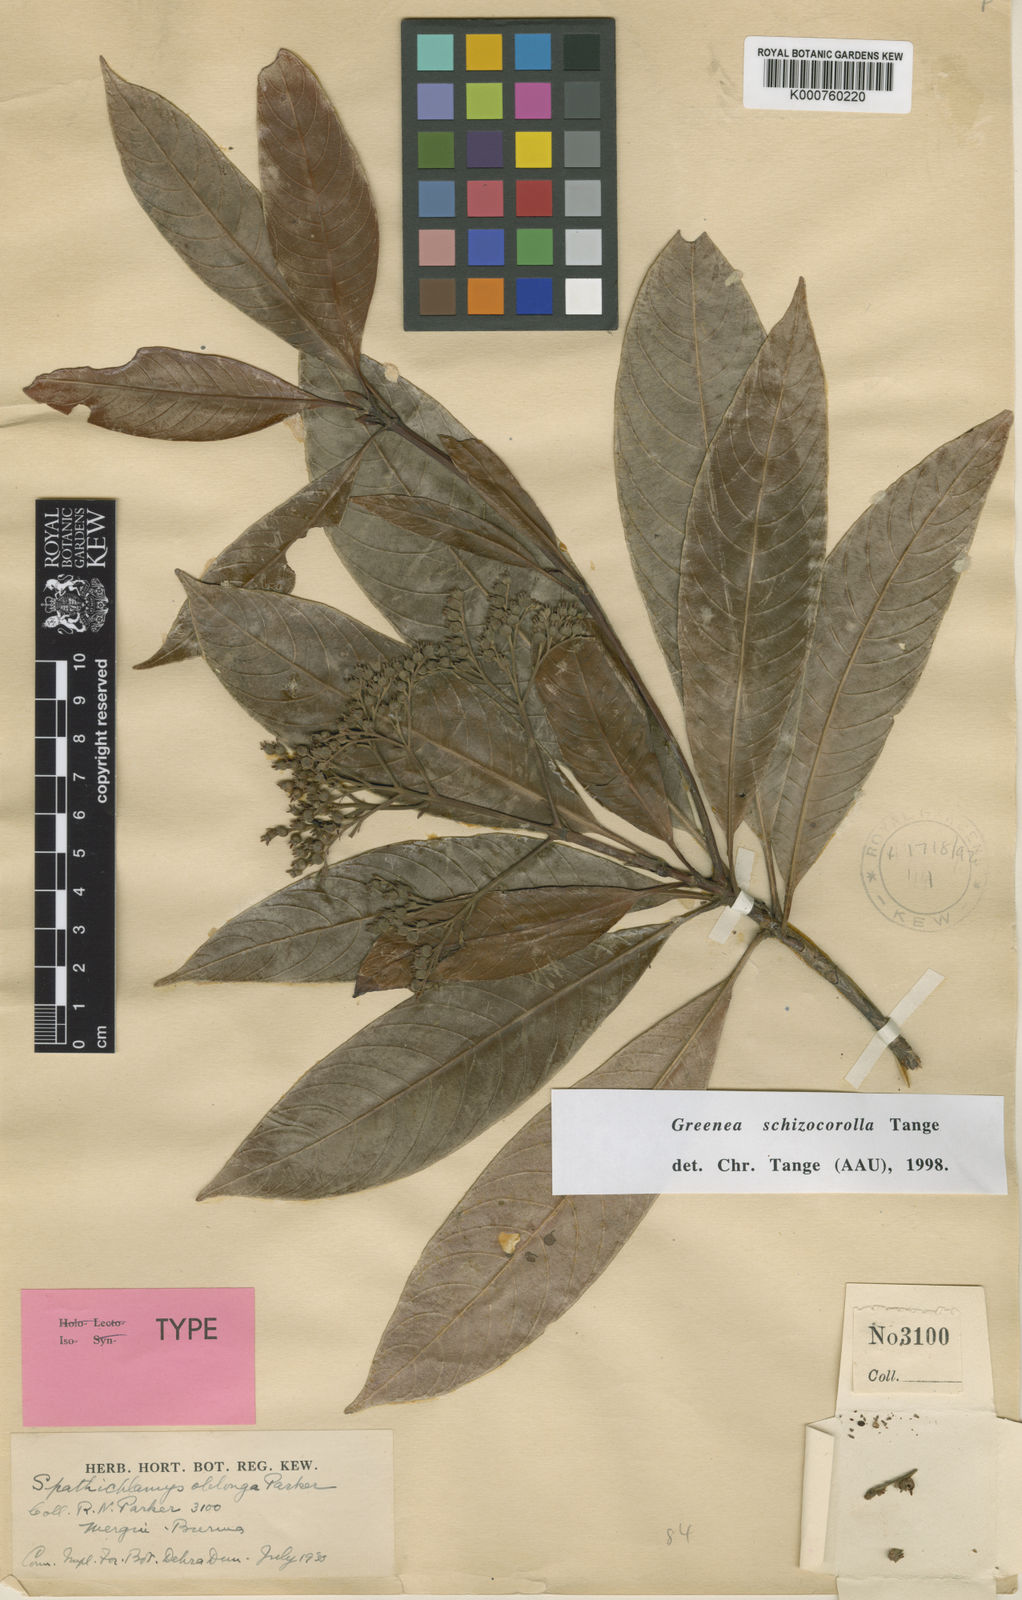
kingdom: Plantae
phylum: Tracheophyta
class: Magnoliopsida
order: Gentianales
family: Rubiaceae
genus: Greenea
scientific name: Greenea schizocorolla
